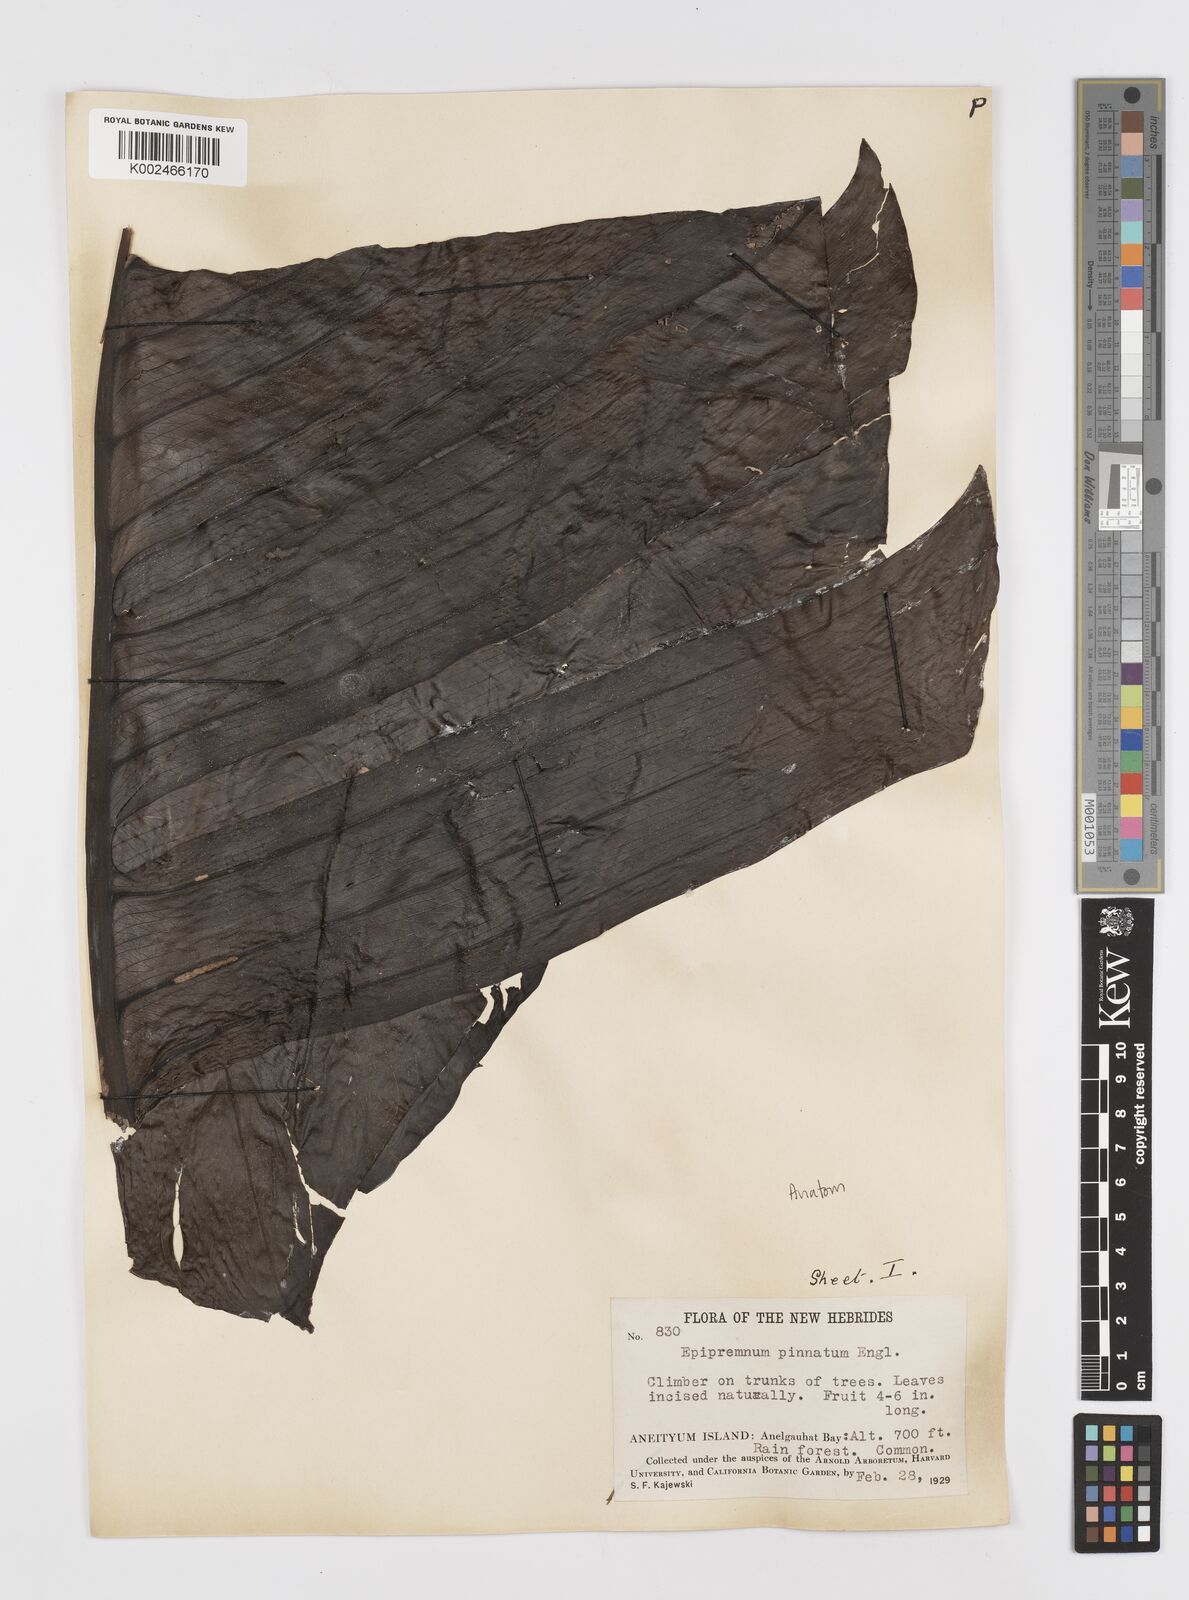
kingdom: Plantae
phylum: Tracheophyta
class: Liliopsida
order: Alismatales
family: Araceae
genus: Rhaphidophora
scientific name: Rhaphidophora korthalsii
